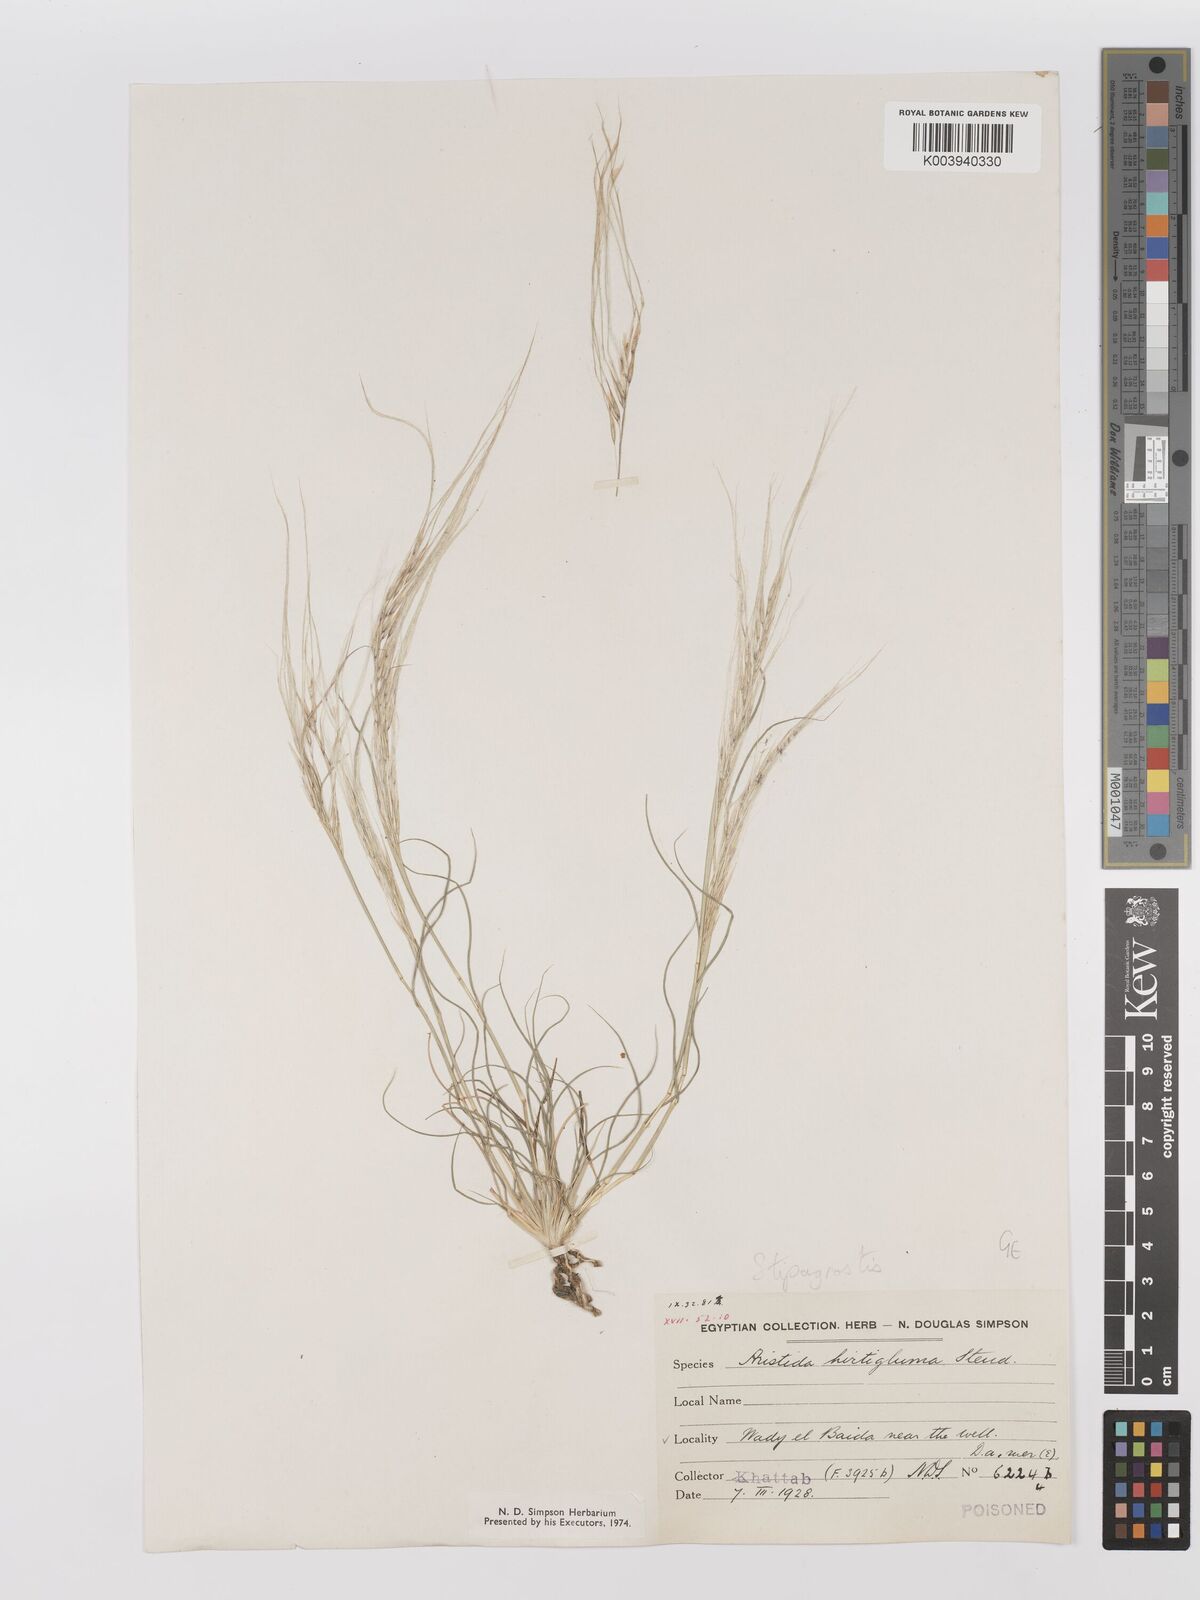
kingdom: Plantae
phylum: Tracheophyta
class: Liliopsida
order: Poales
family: Poaceae
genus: Stipagrostis
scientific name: Stipagrostis hirtigluma
